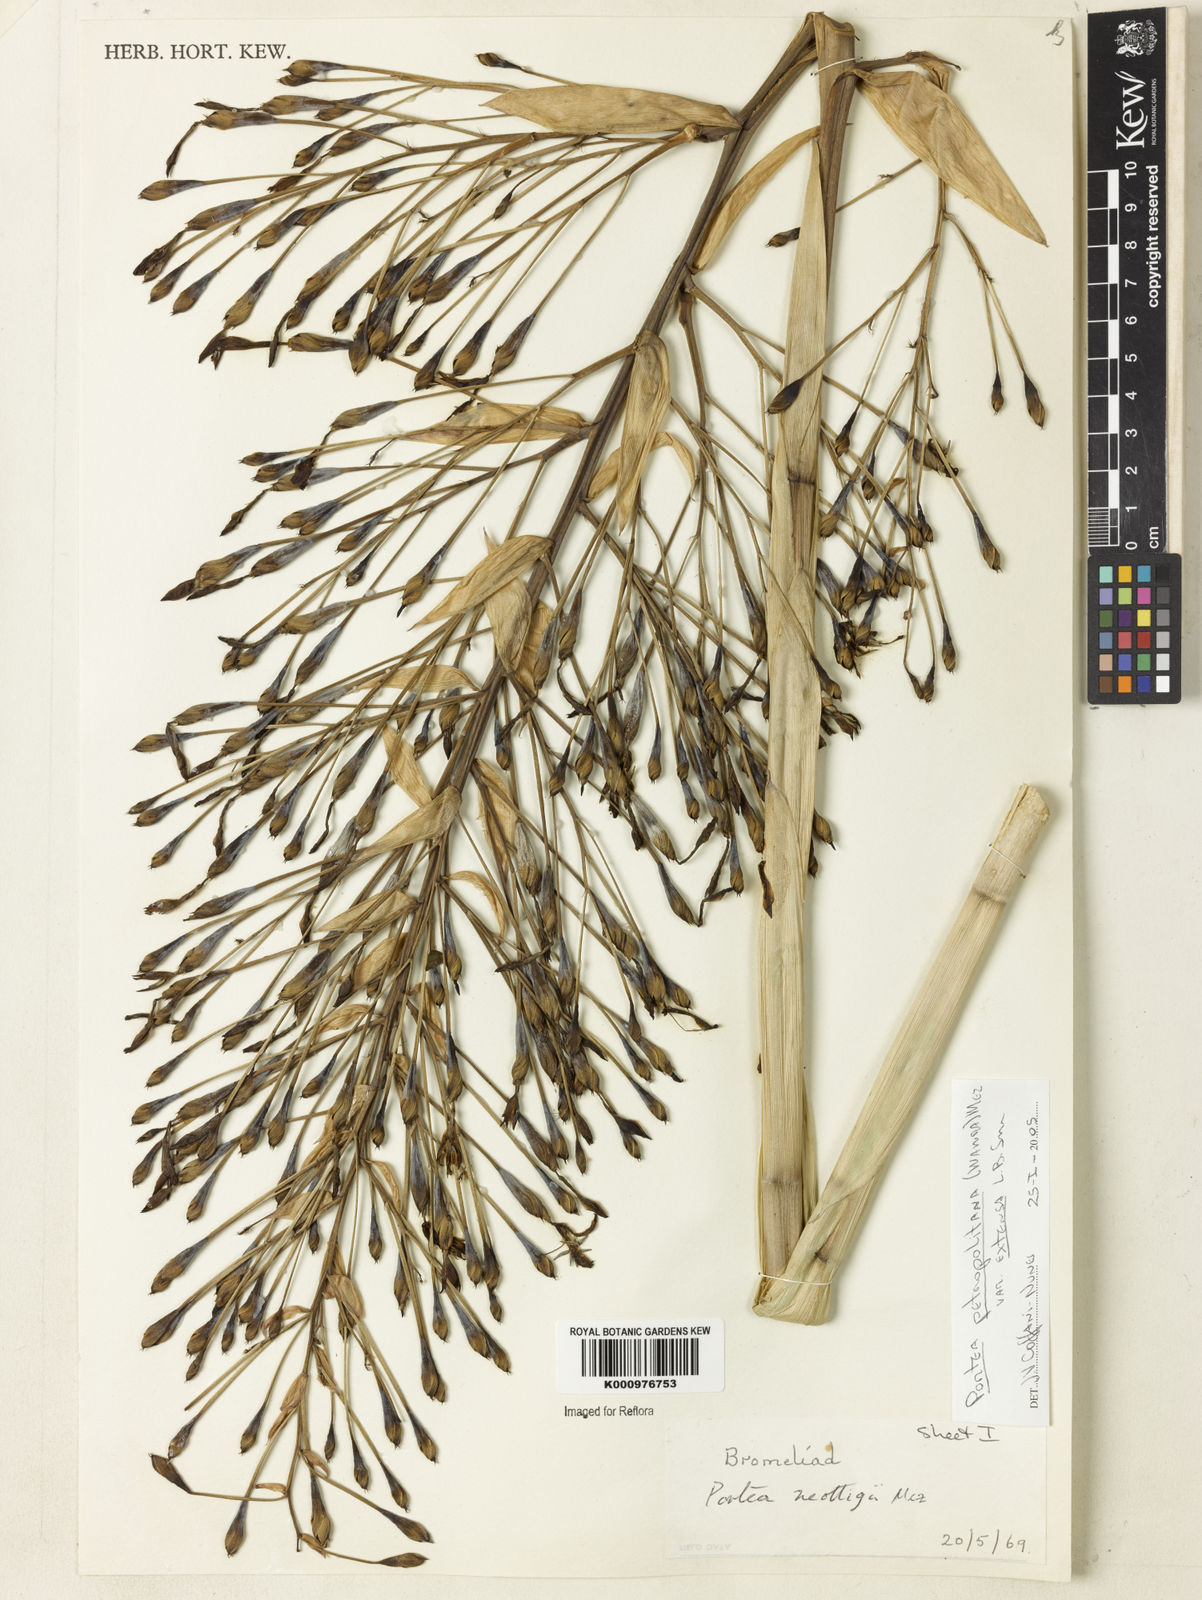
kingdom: Plantae
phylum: Tracheophyta
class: Liliopsida
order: Poales
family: Bromeliaceae
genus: Portea
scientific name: Portea petropolitana
